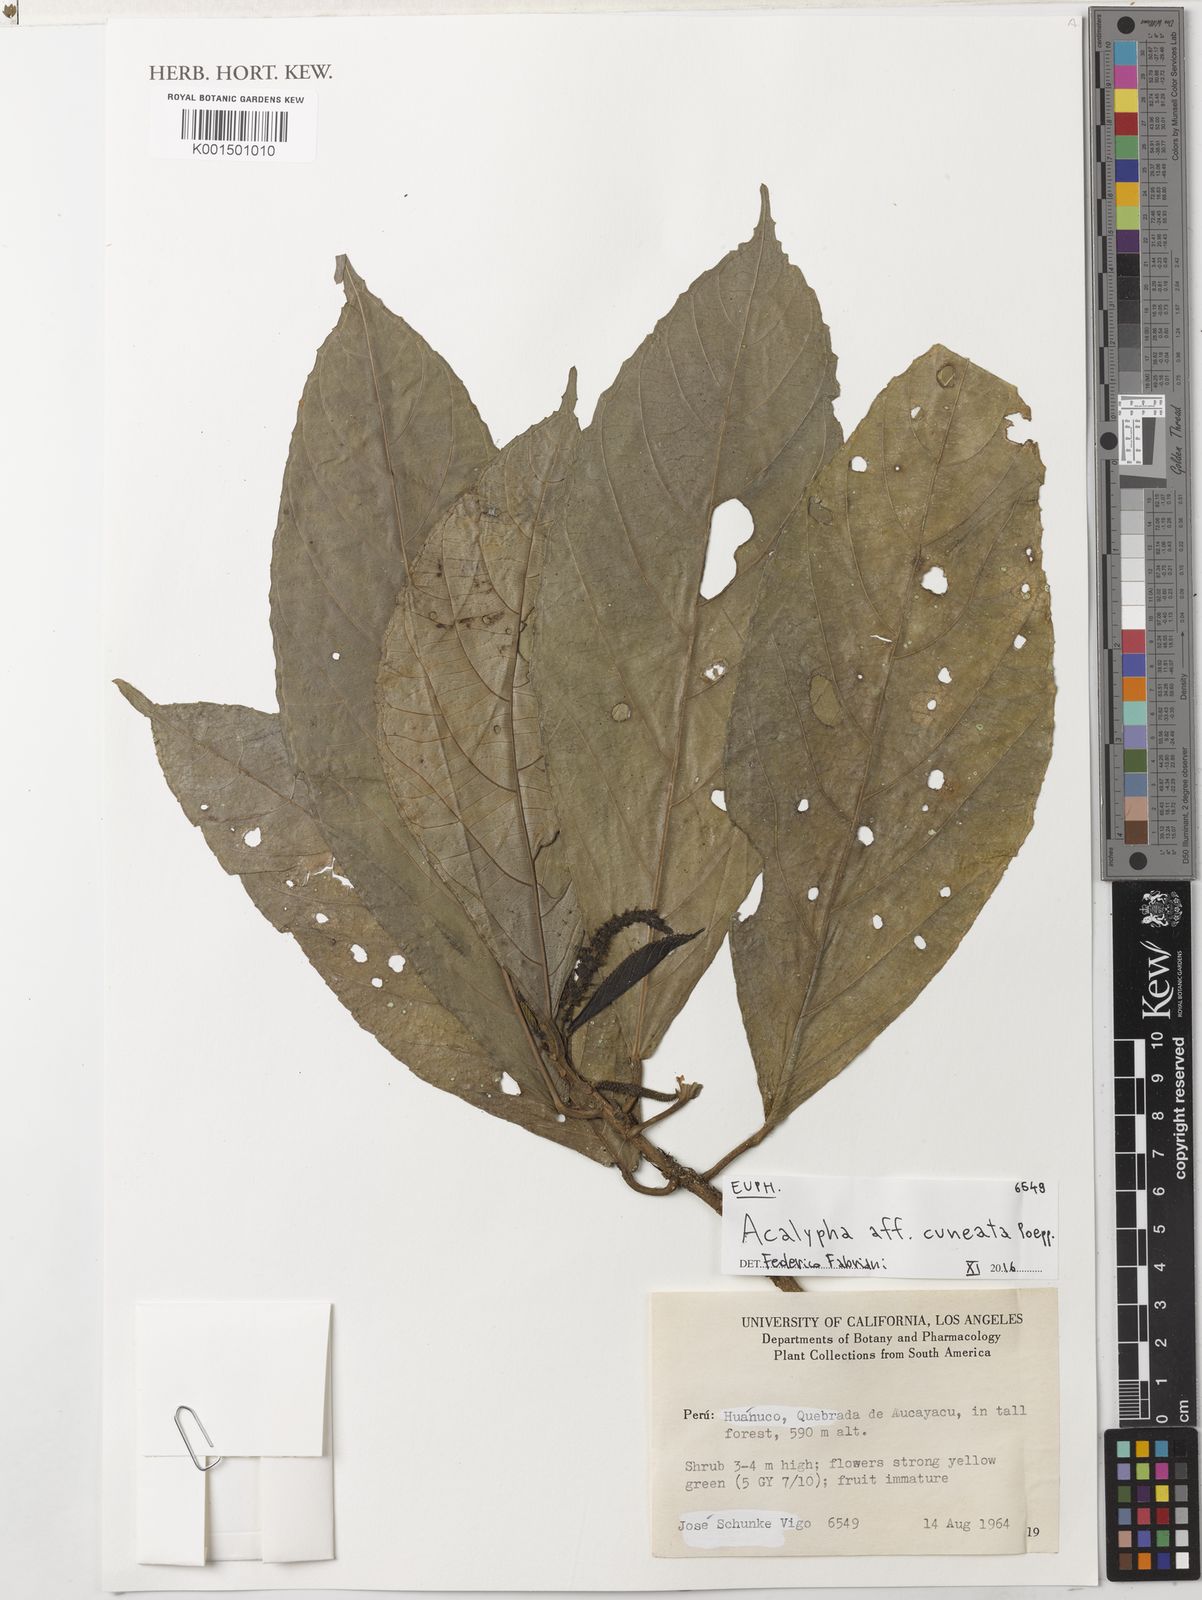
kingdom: Plantae
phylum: Tracheophyta
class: Magnoliopsida
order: Malpighiales
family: Euphorbiaceae
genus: Acalypha
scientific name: Acalypha cuneata
